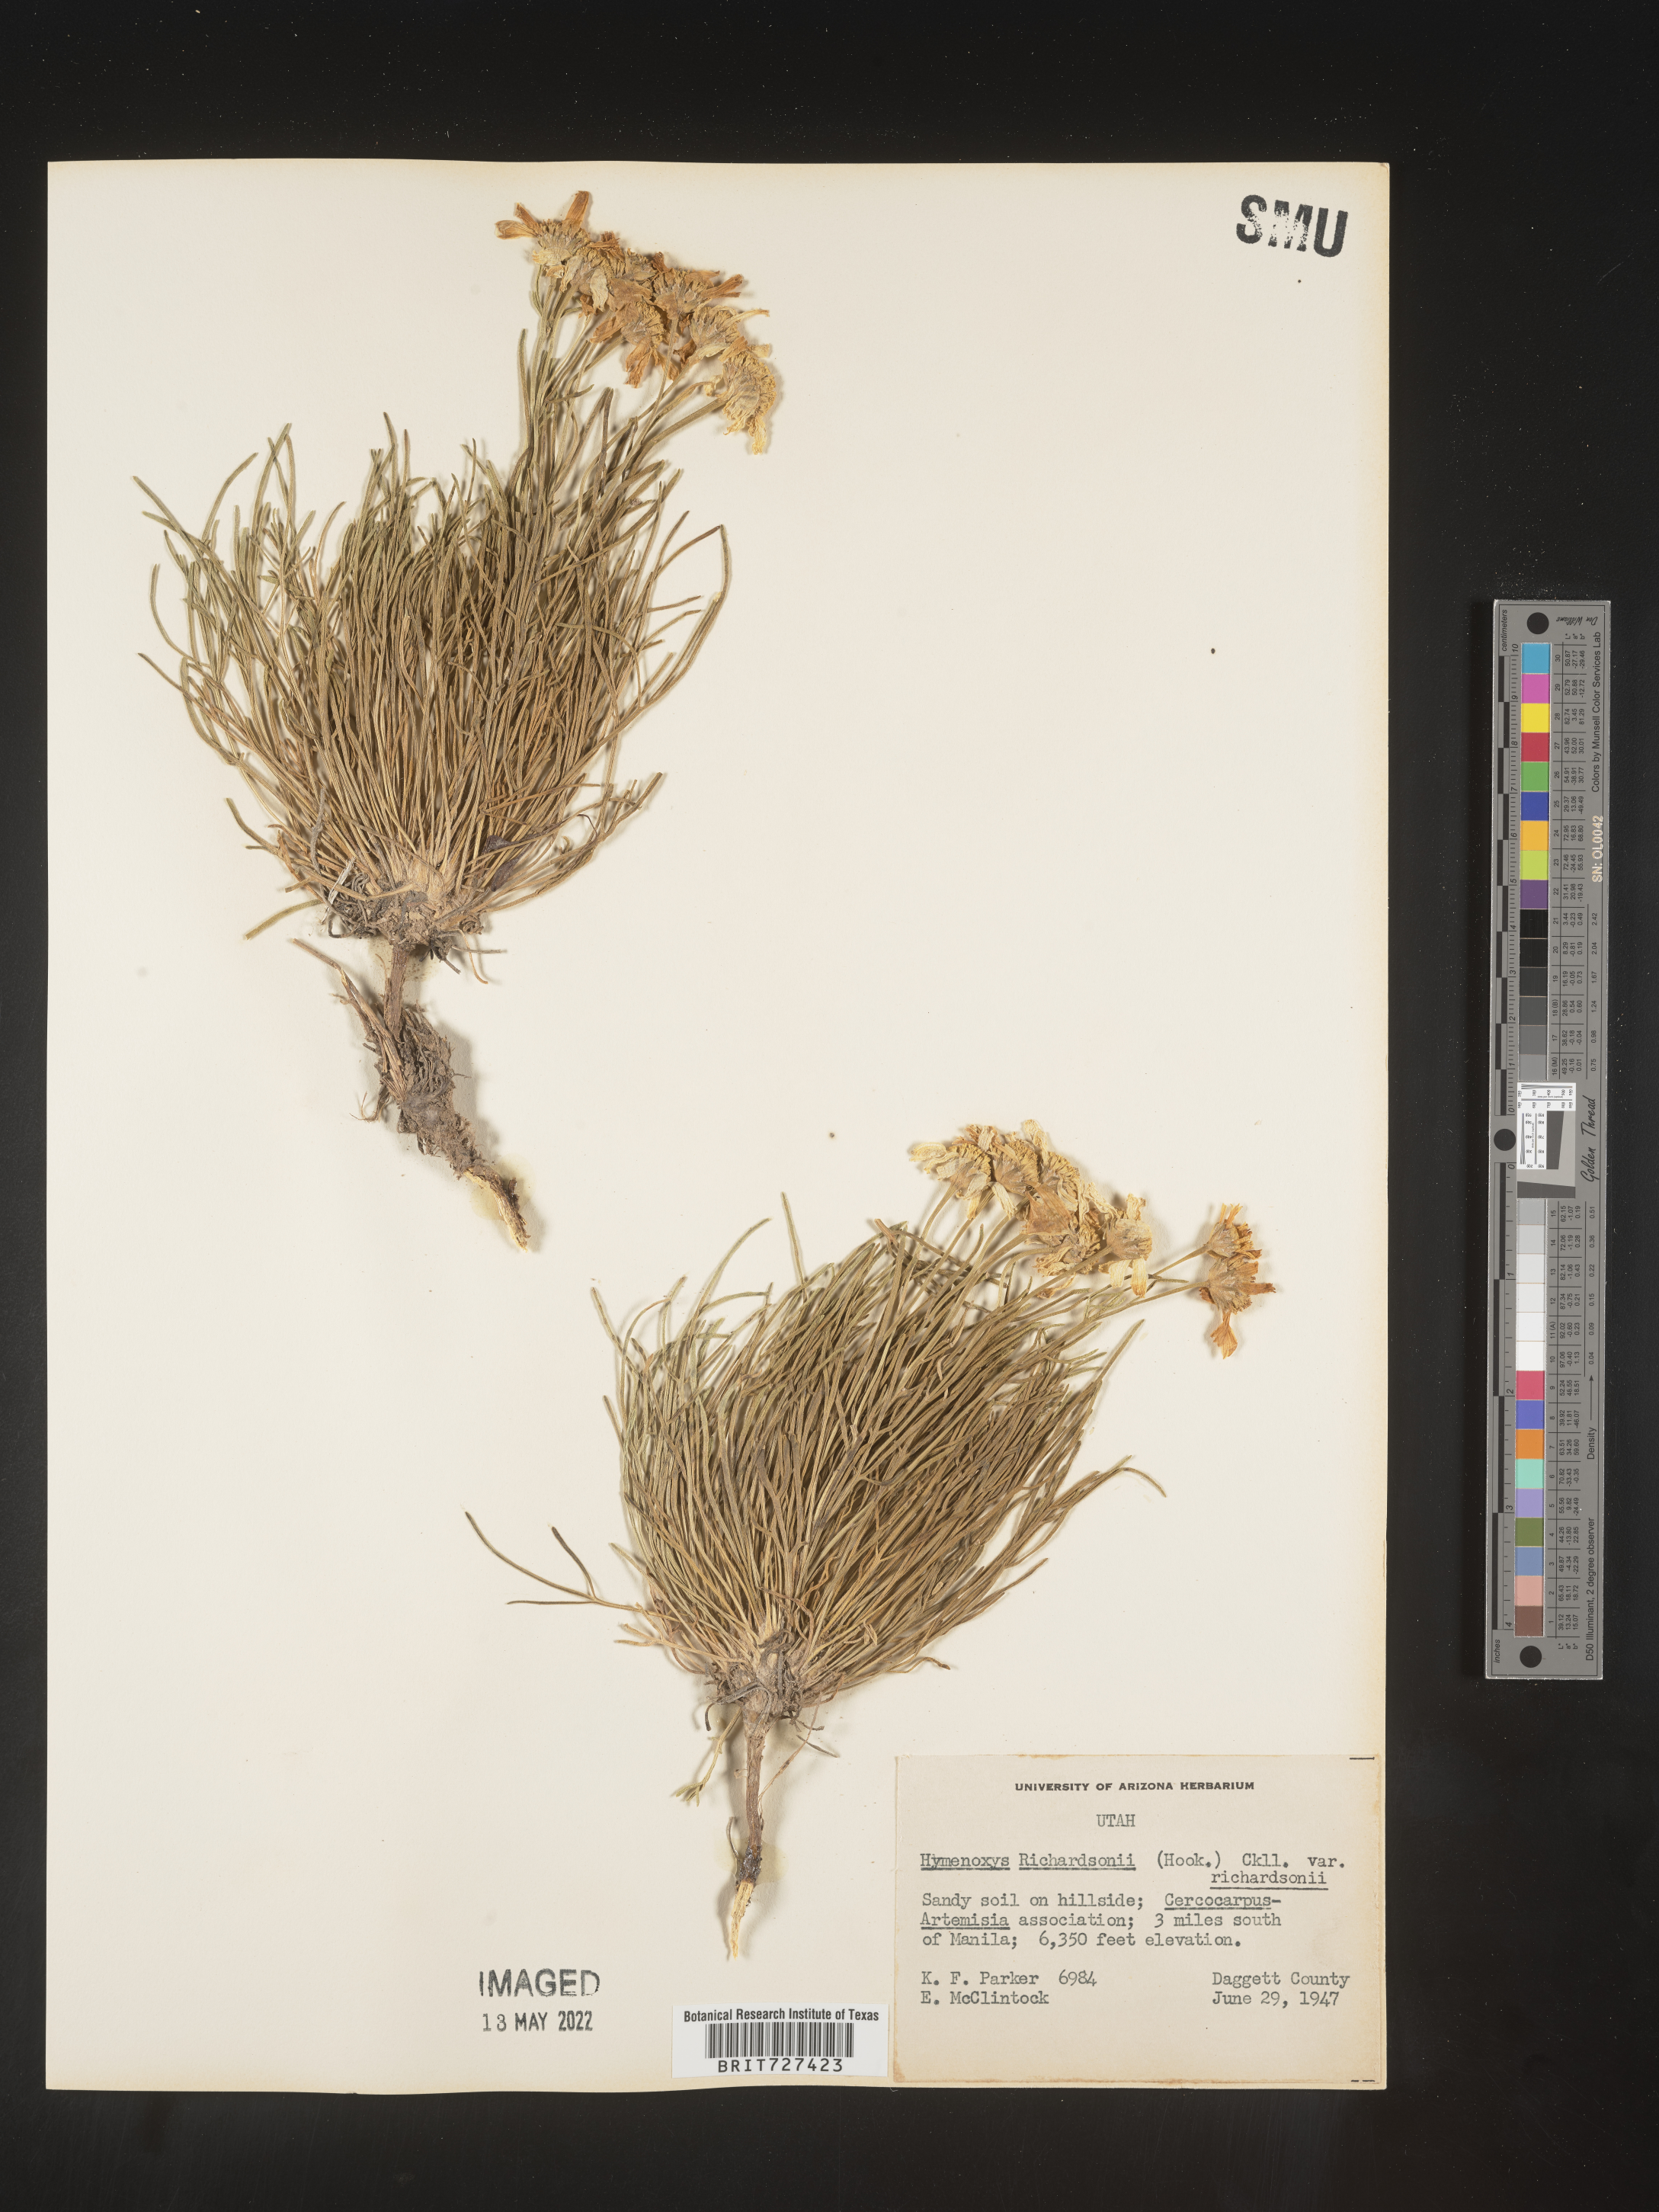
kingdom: Plantae
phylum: Tracheophyta
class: Magnoliopsida
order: Asterales
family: Asteraceae
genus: Hymenoxys
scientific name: Hymenoxys richardsonii
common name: Pingue rubberweed
